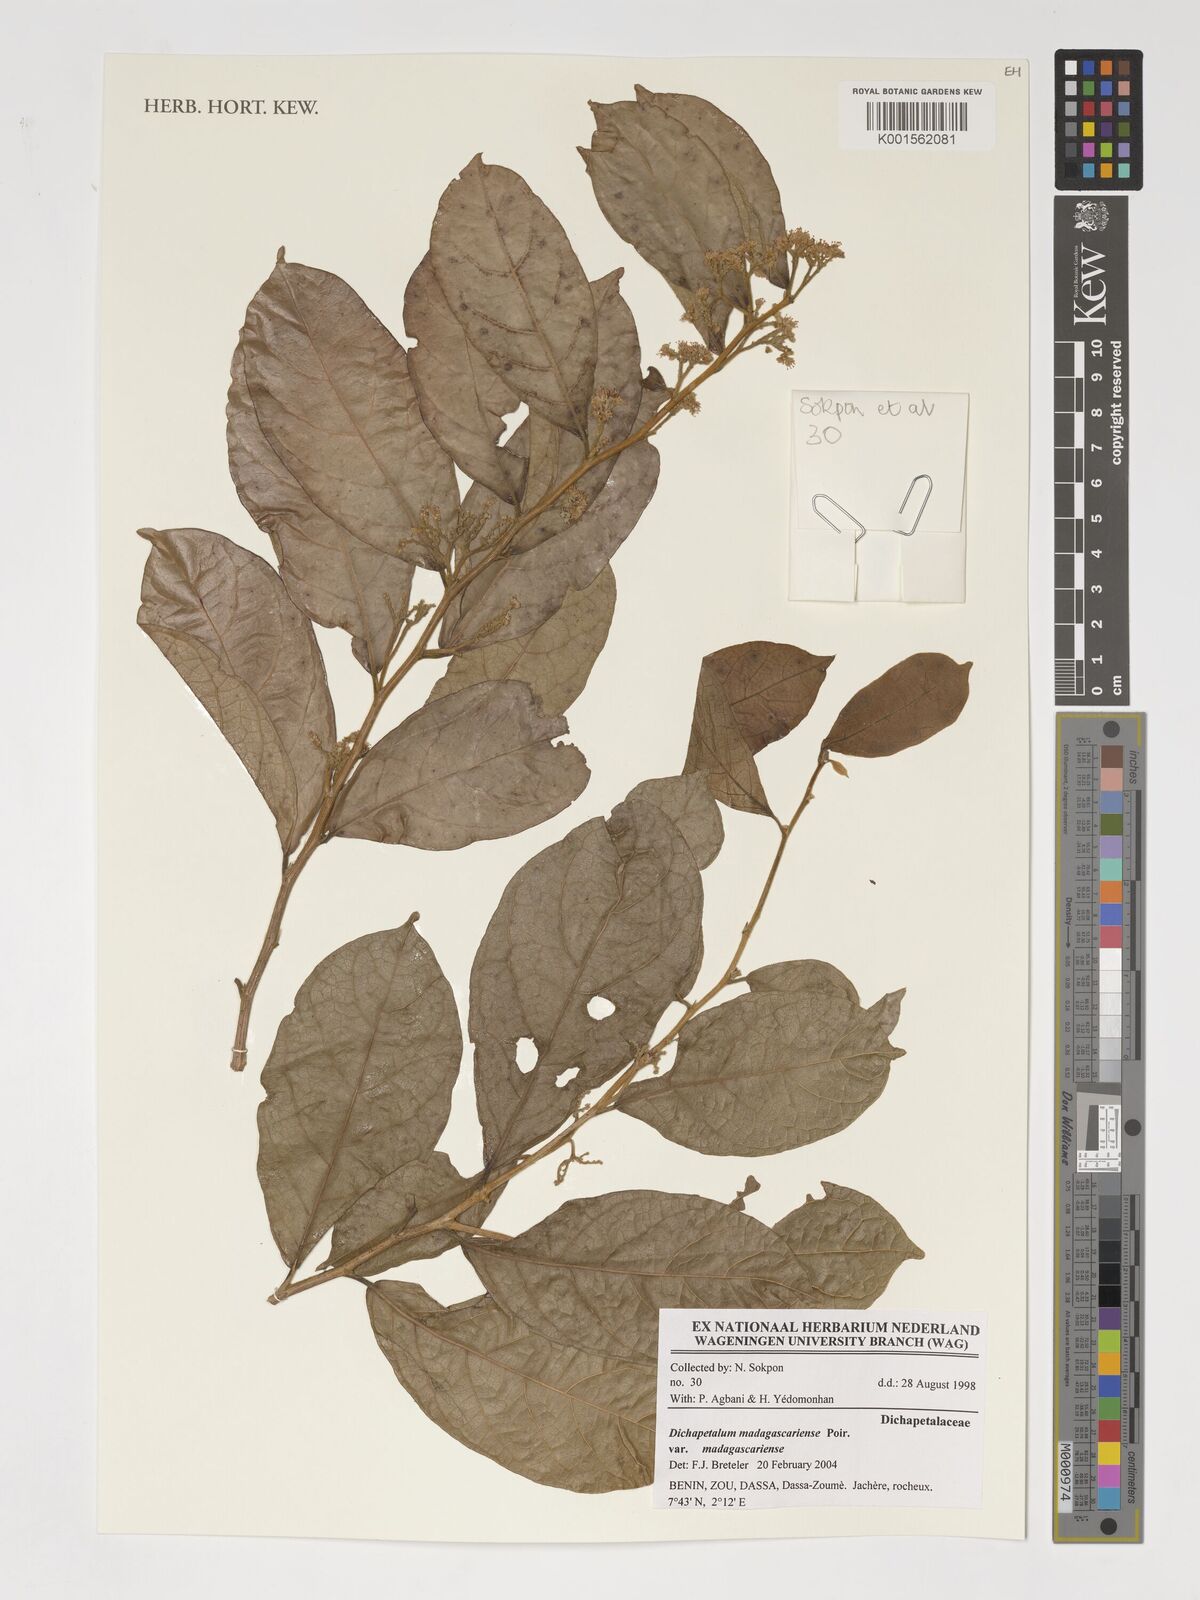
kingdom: Plantae
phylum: Tracheophyta
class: Magnoliopsida
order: Malpighiales
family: Dichapetalaceae
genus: Dichapetalum
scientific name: Dichapetalum madagascariense
